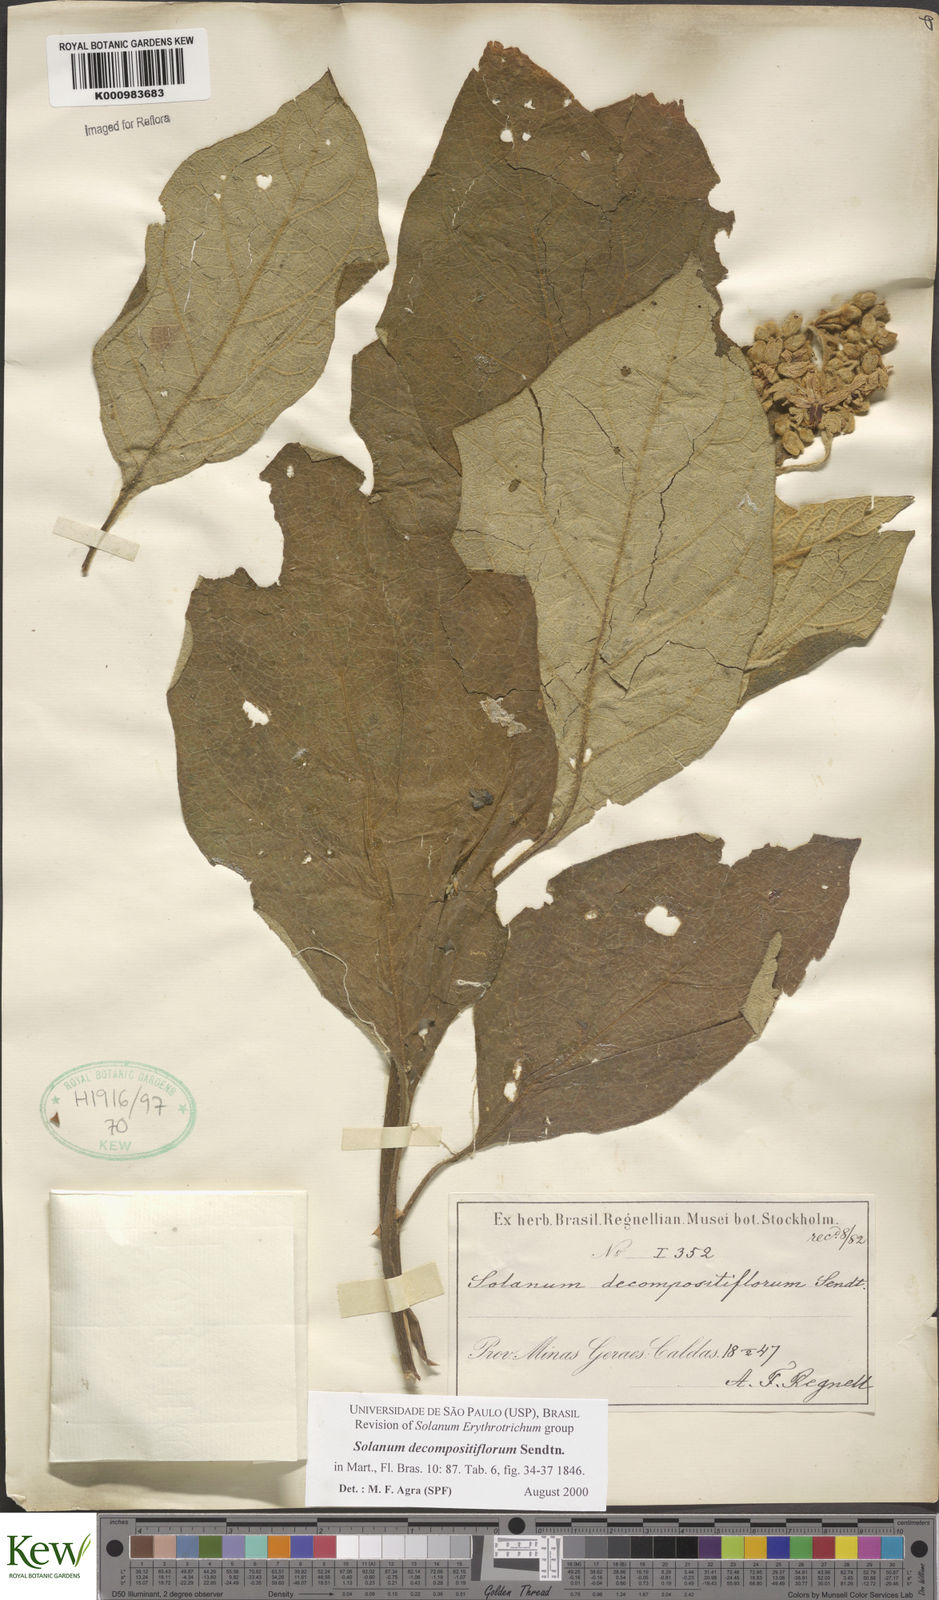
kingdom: Plantae
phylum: Tracheophyta
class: Magnoliopsida
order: Solanales
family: Solanaceae
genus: Solanum
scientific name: Solanum decompositiflorum
